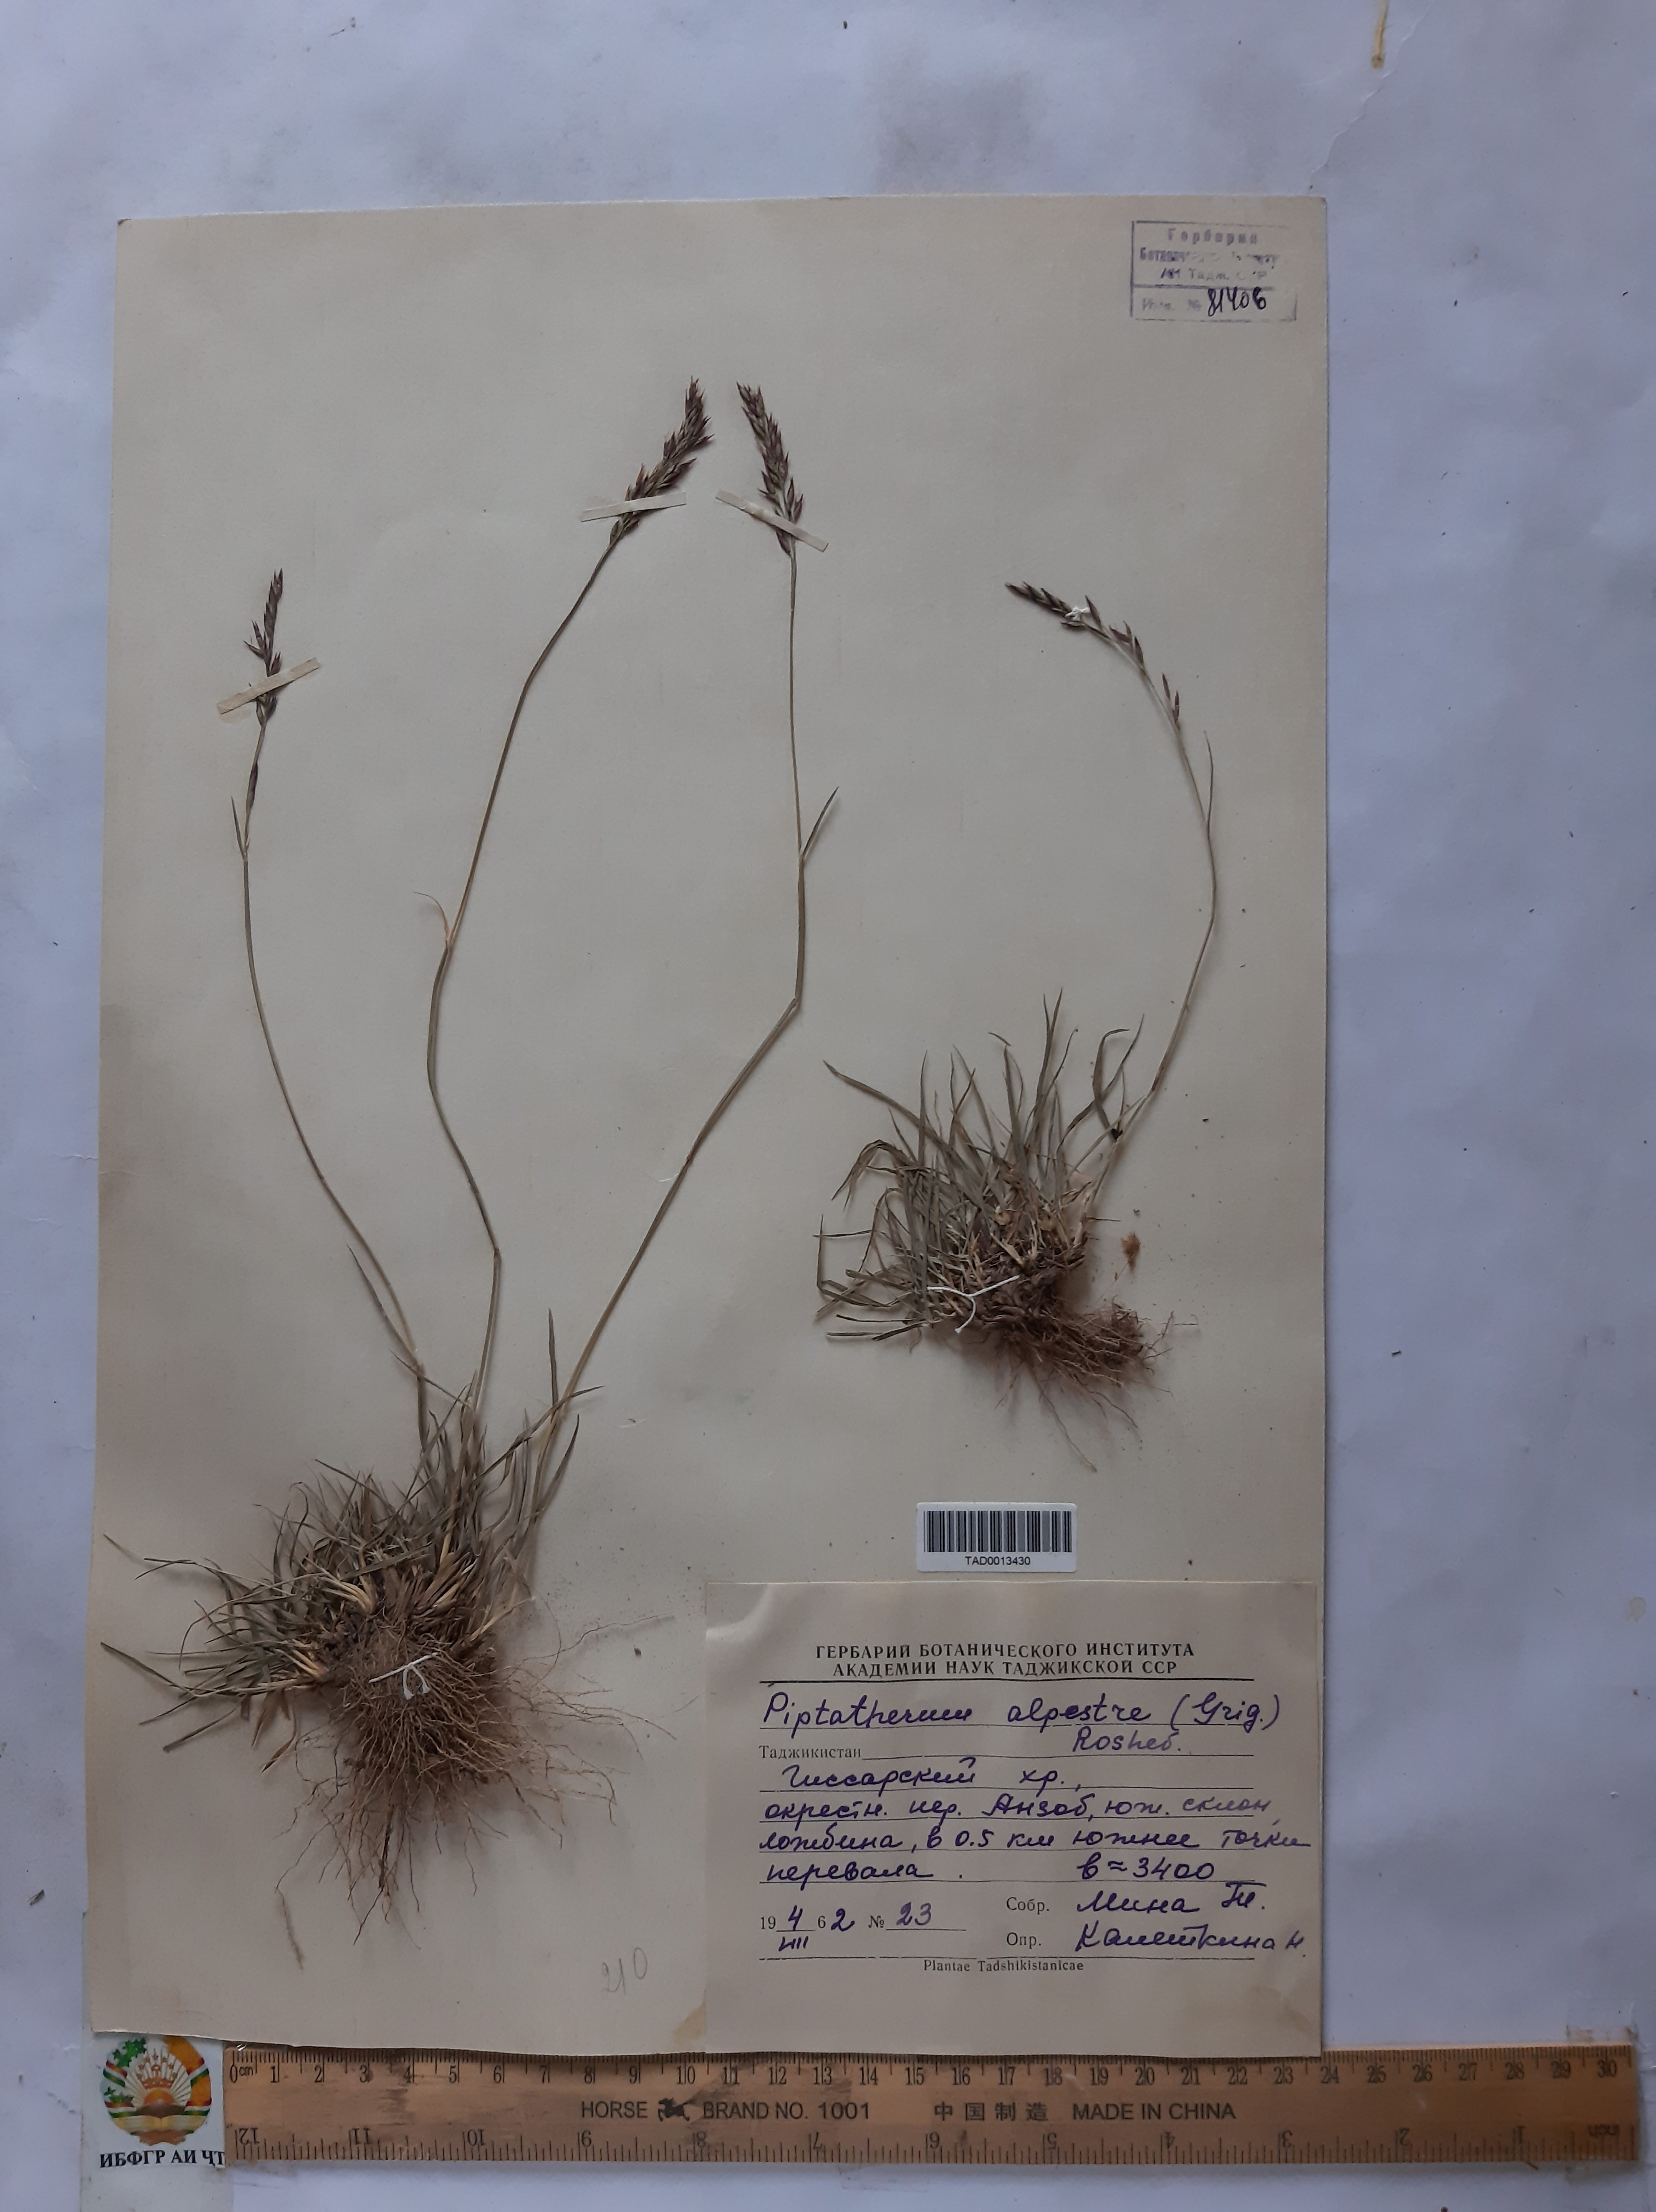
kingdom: Plantae
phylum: Tracheophyta
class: Liliopsida
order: Poales
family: Poaceae
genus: Piptatherum
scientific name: Piptatherum alpestre
